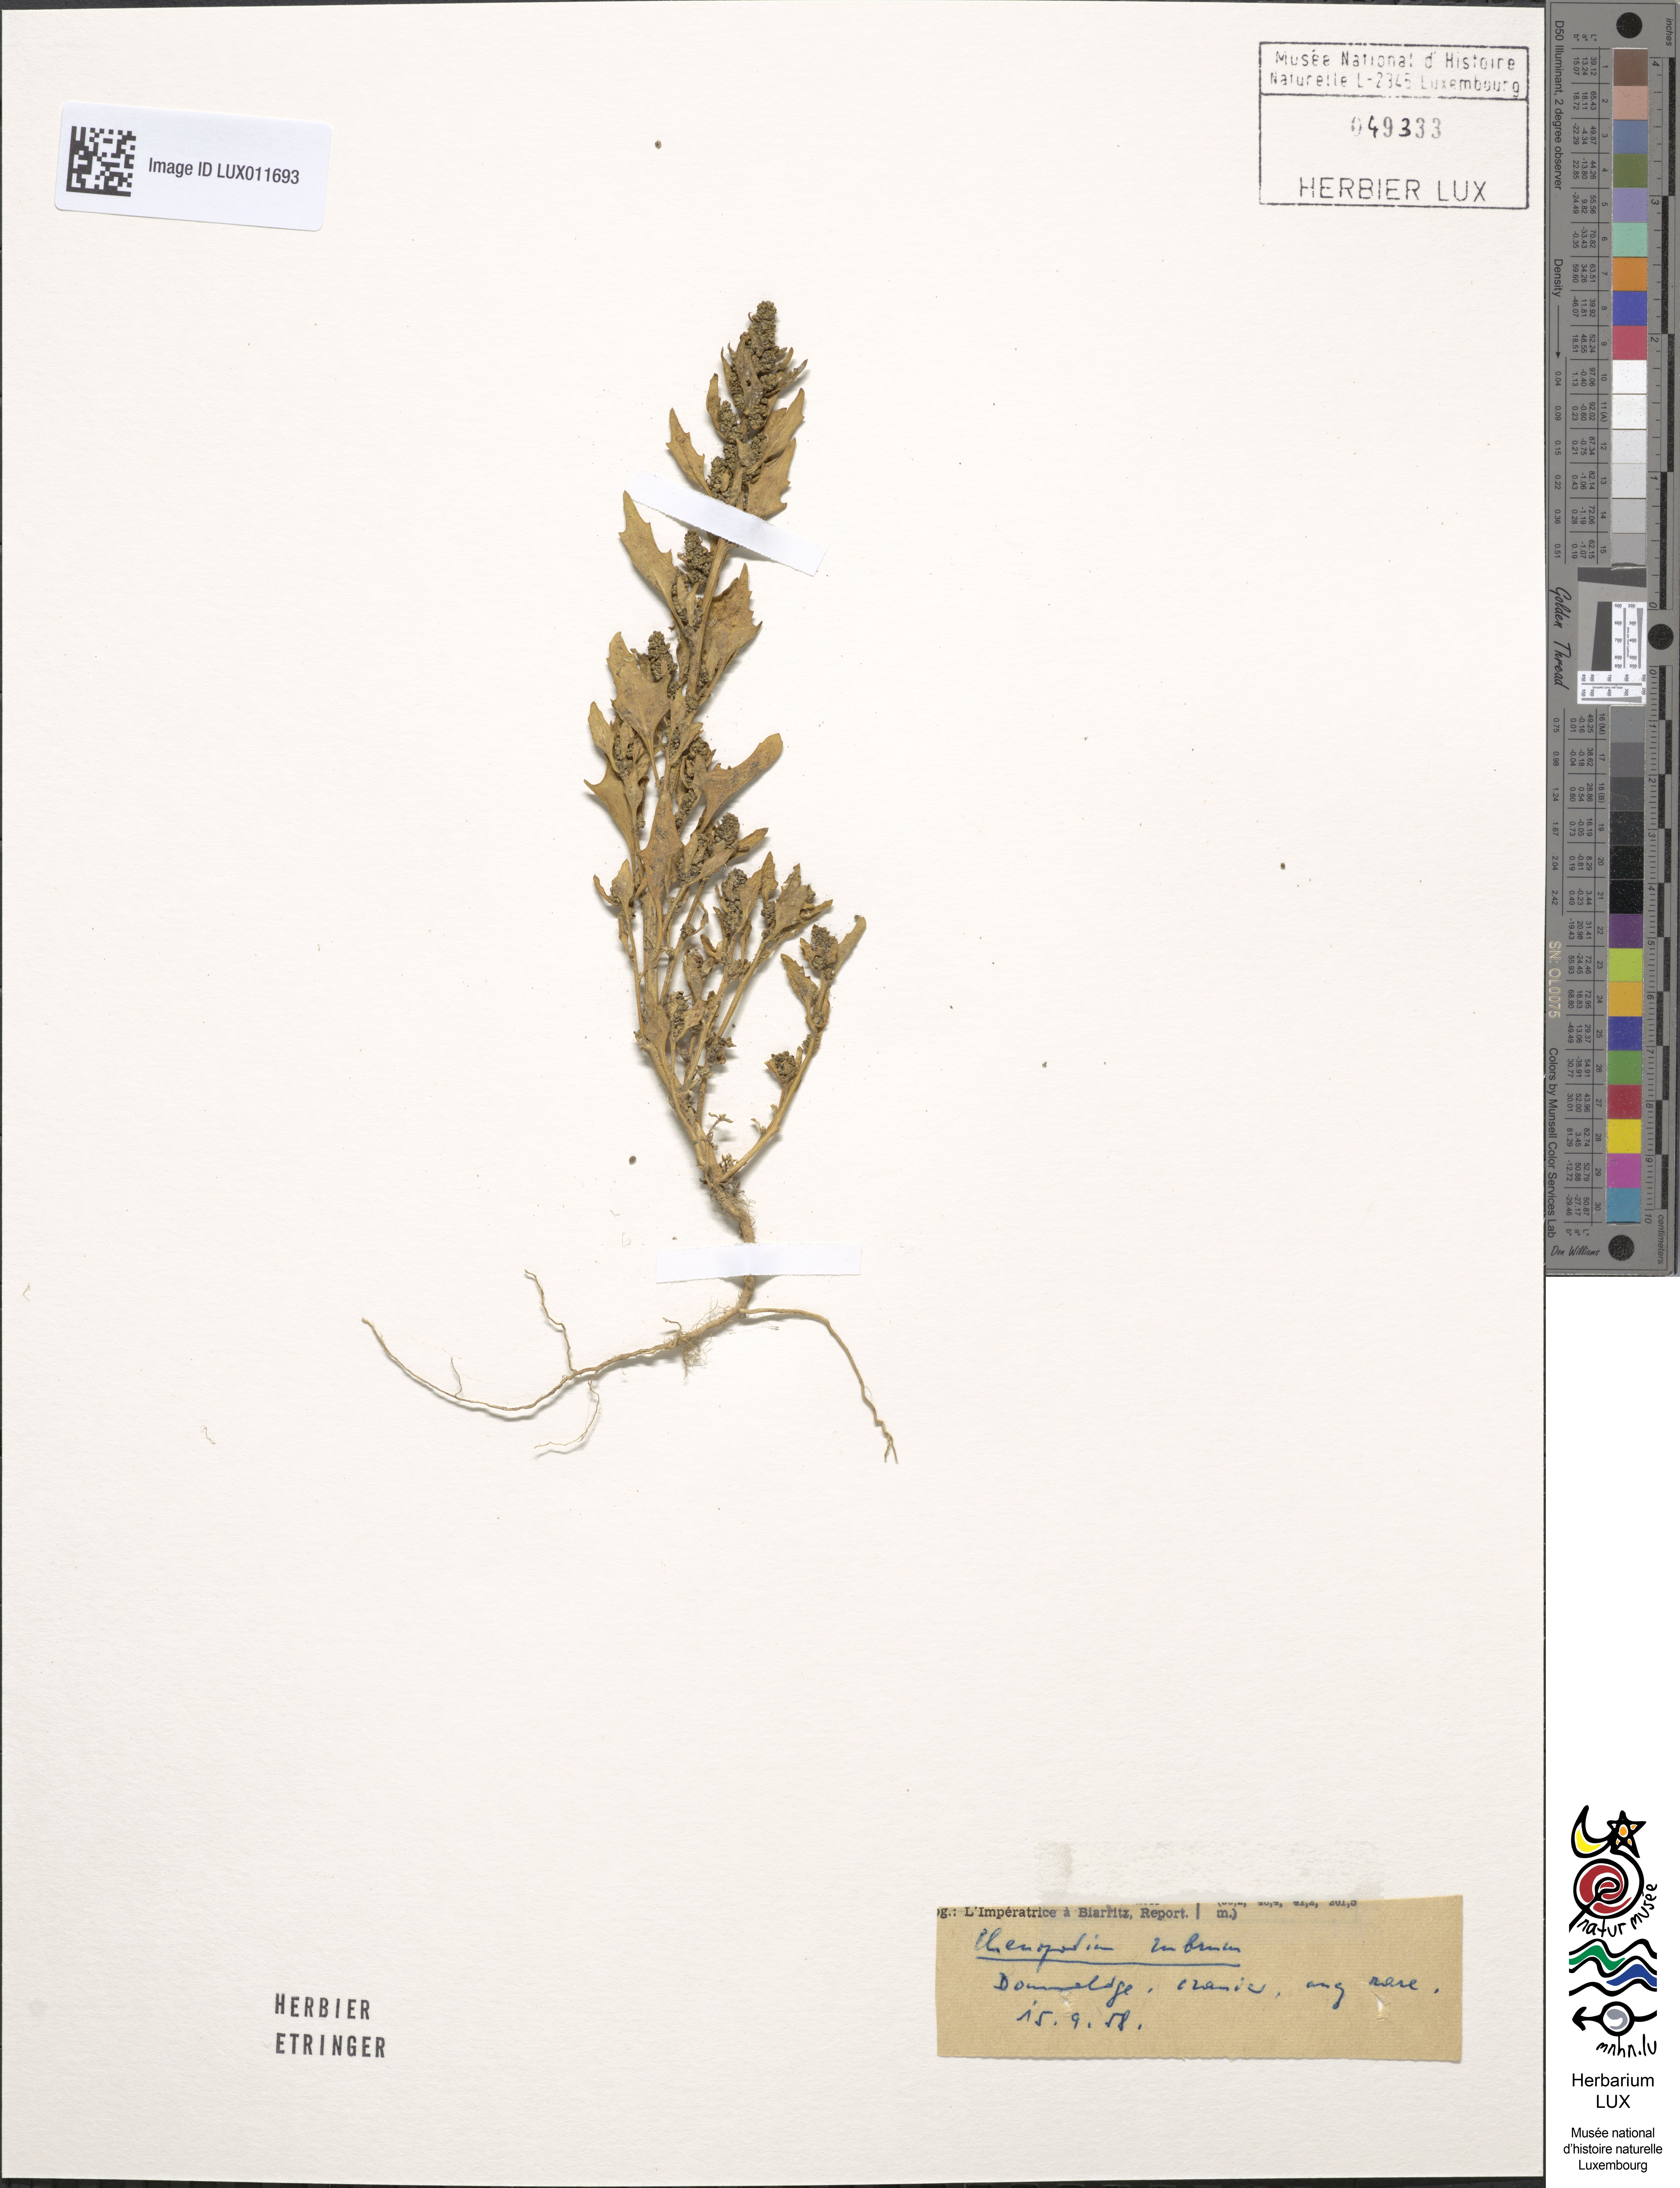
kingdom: Plantae
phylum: Tracheophyta
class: Magnoliopsida
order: Caryophyllales
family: Amaranthaceae
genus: Oxybasis
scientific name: Oxybasis rubra
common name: Red goosefoot
